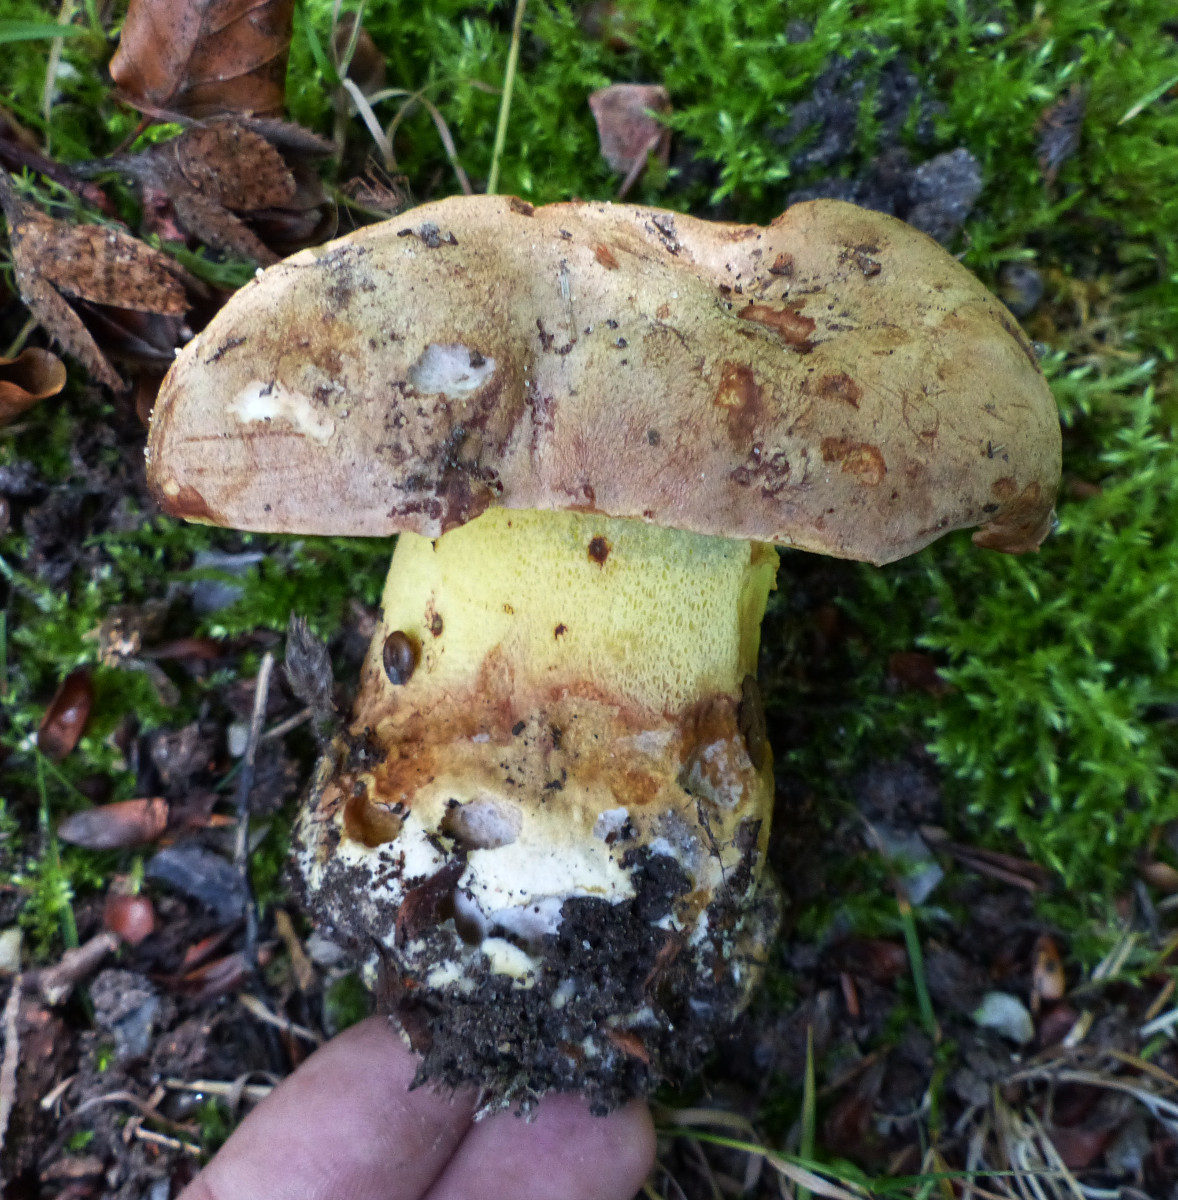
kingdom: Fungi
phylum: Basidiomycota
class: Agaricomycetes
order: Boletales
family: Boletaceae
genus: Caloboletus
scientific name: Caloboletus radicans
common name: rod-rørhat
